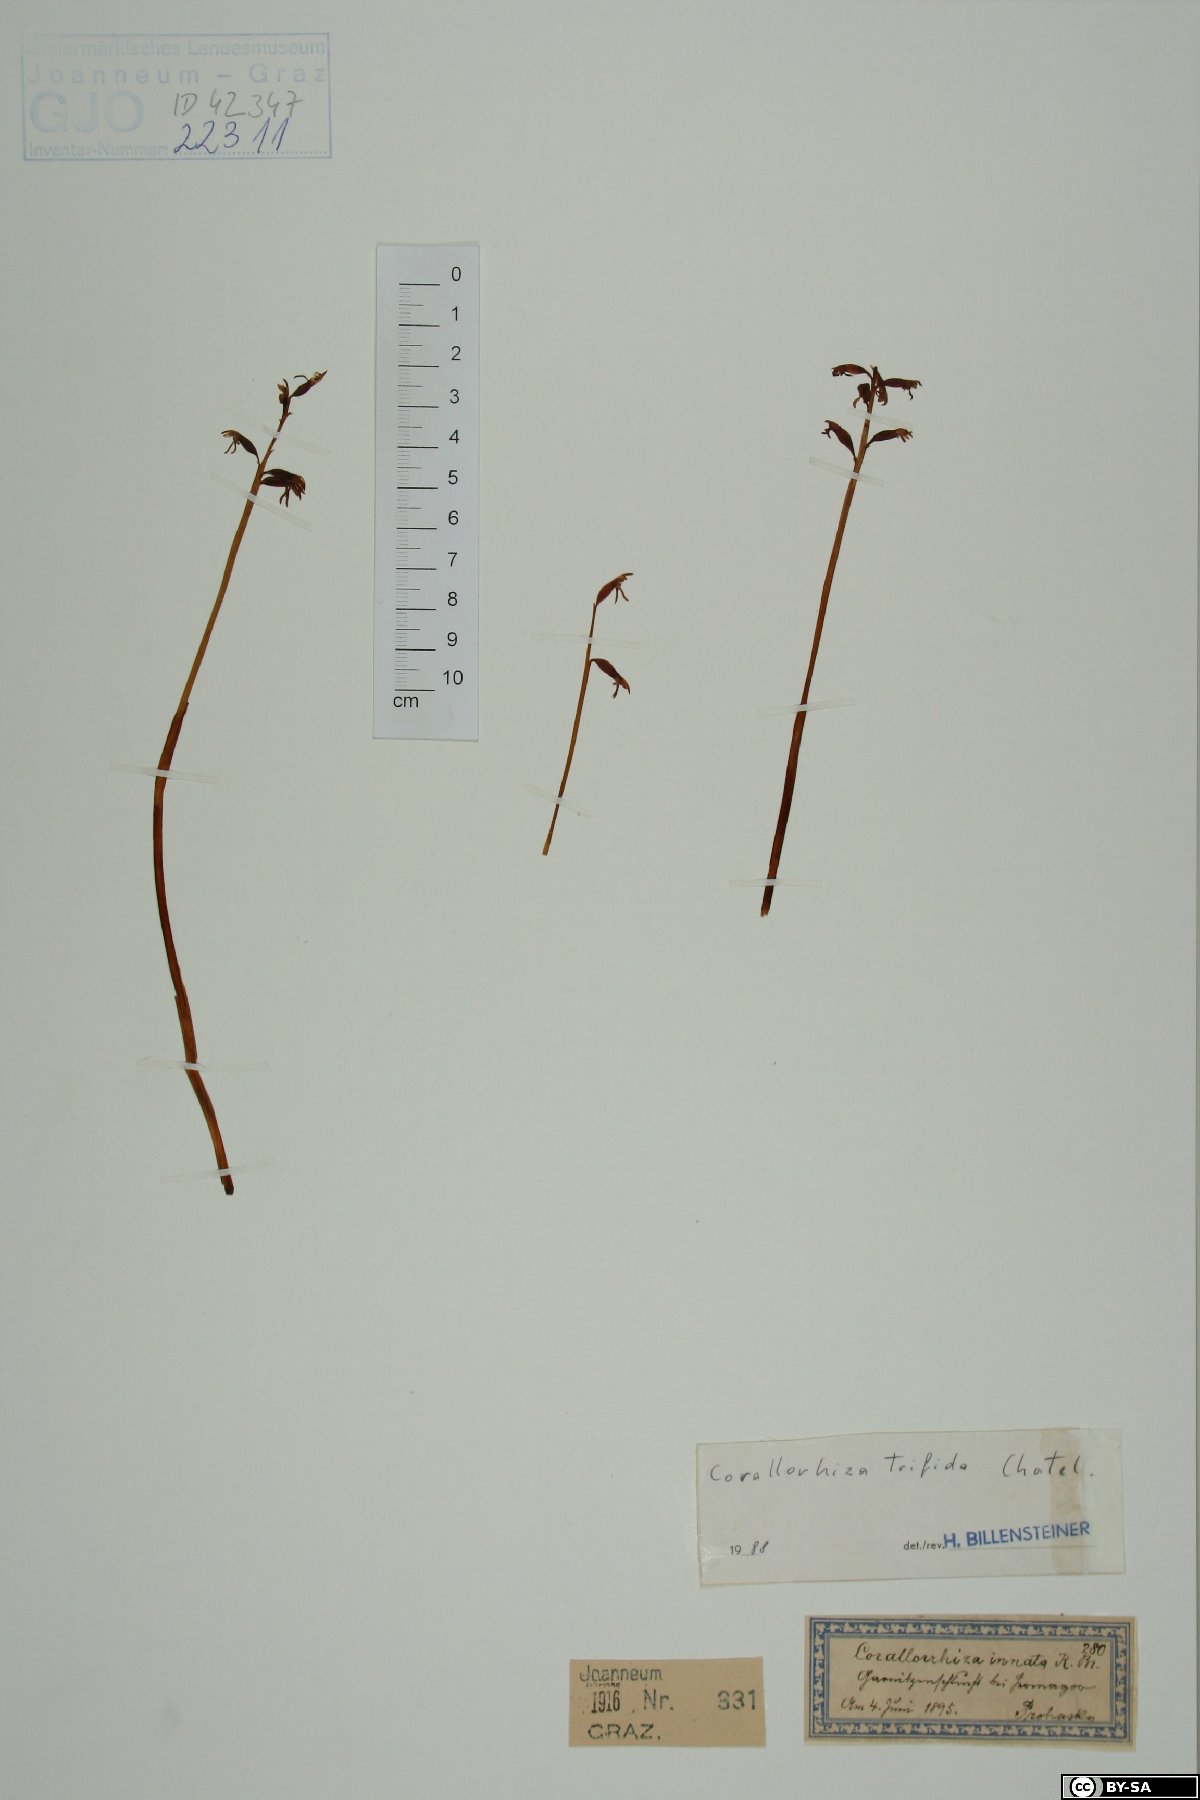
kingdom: Plantae
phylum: Tracheophyta
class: Liliopsida
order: Asparagales
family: Orchidaceae
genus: Corallorhiza
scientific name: Corallorhiza trifida
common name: Yellow coralroot
